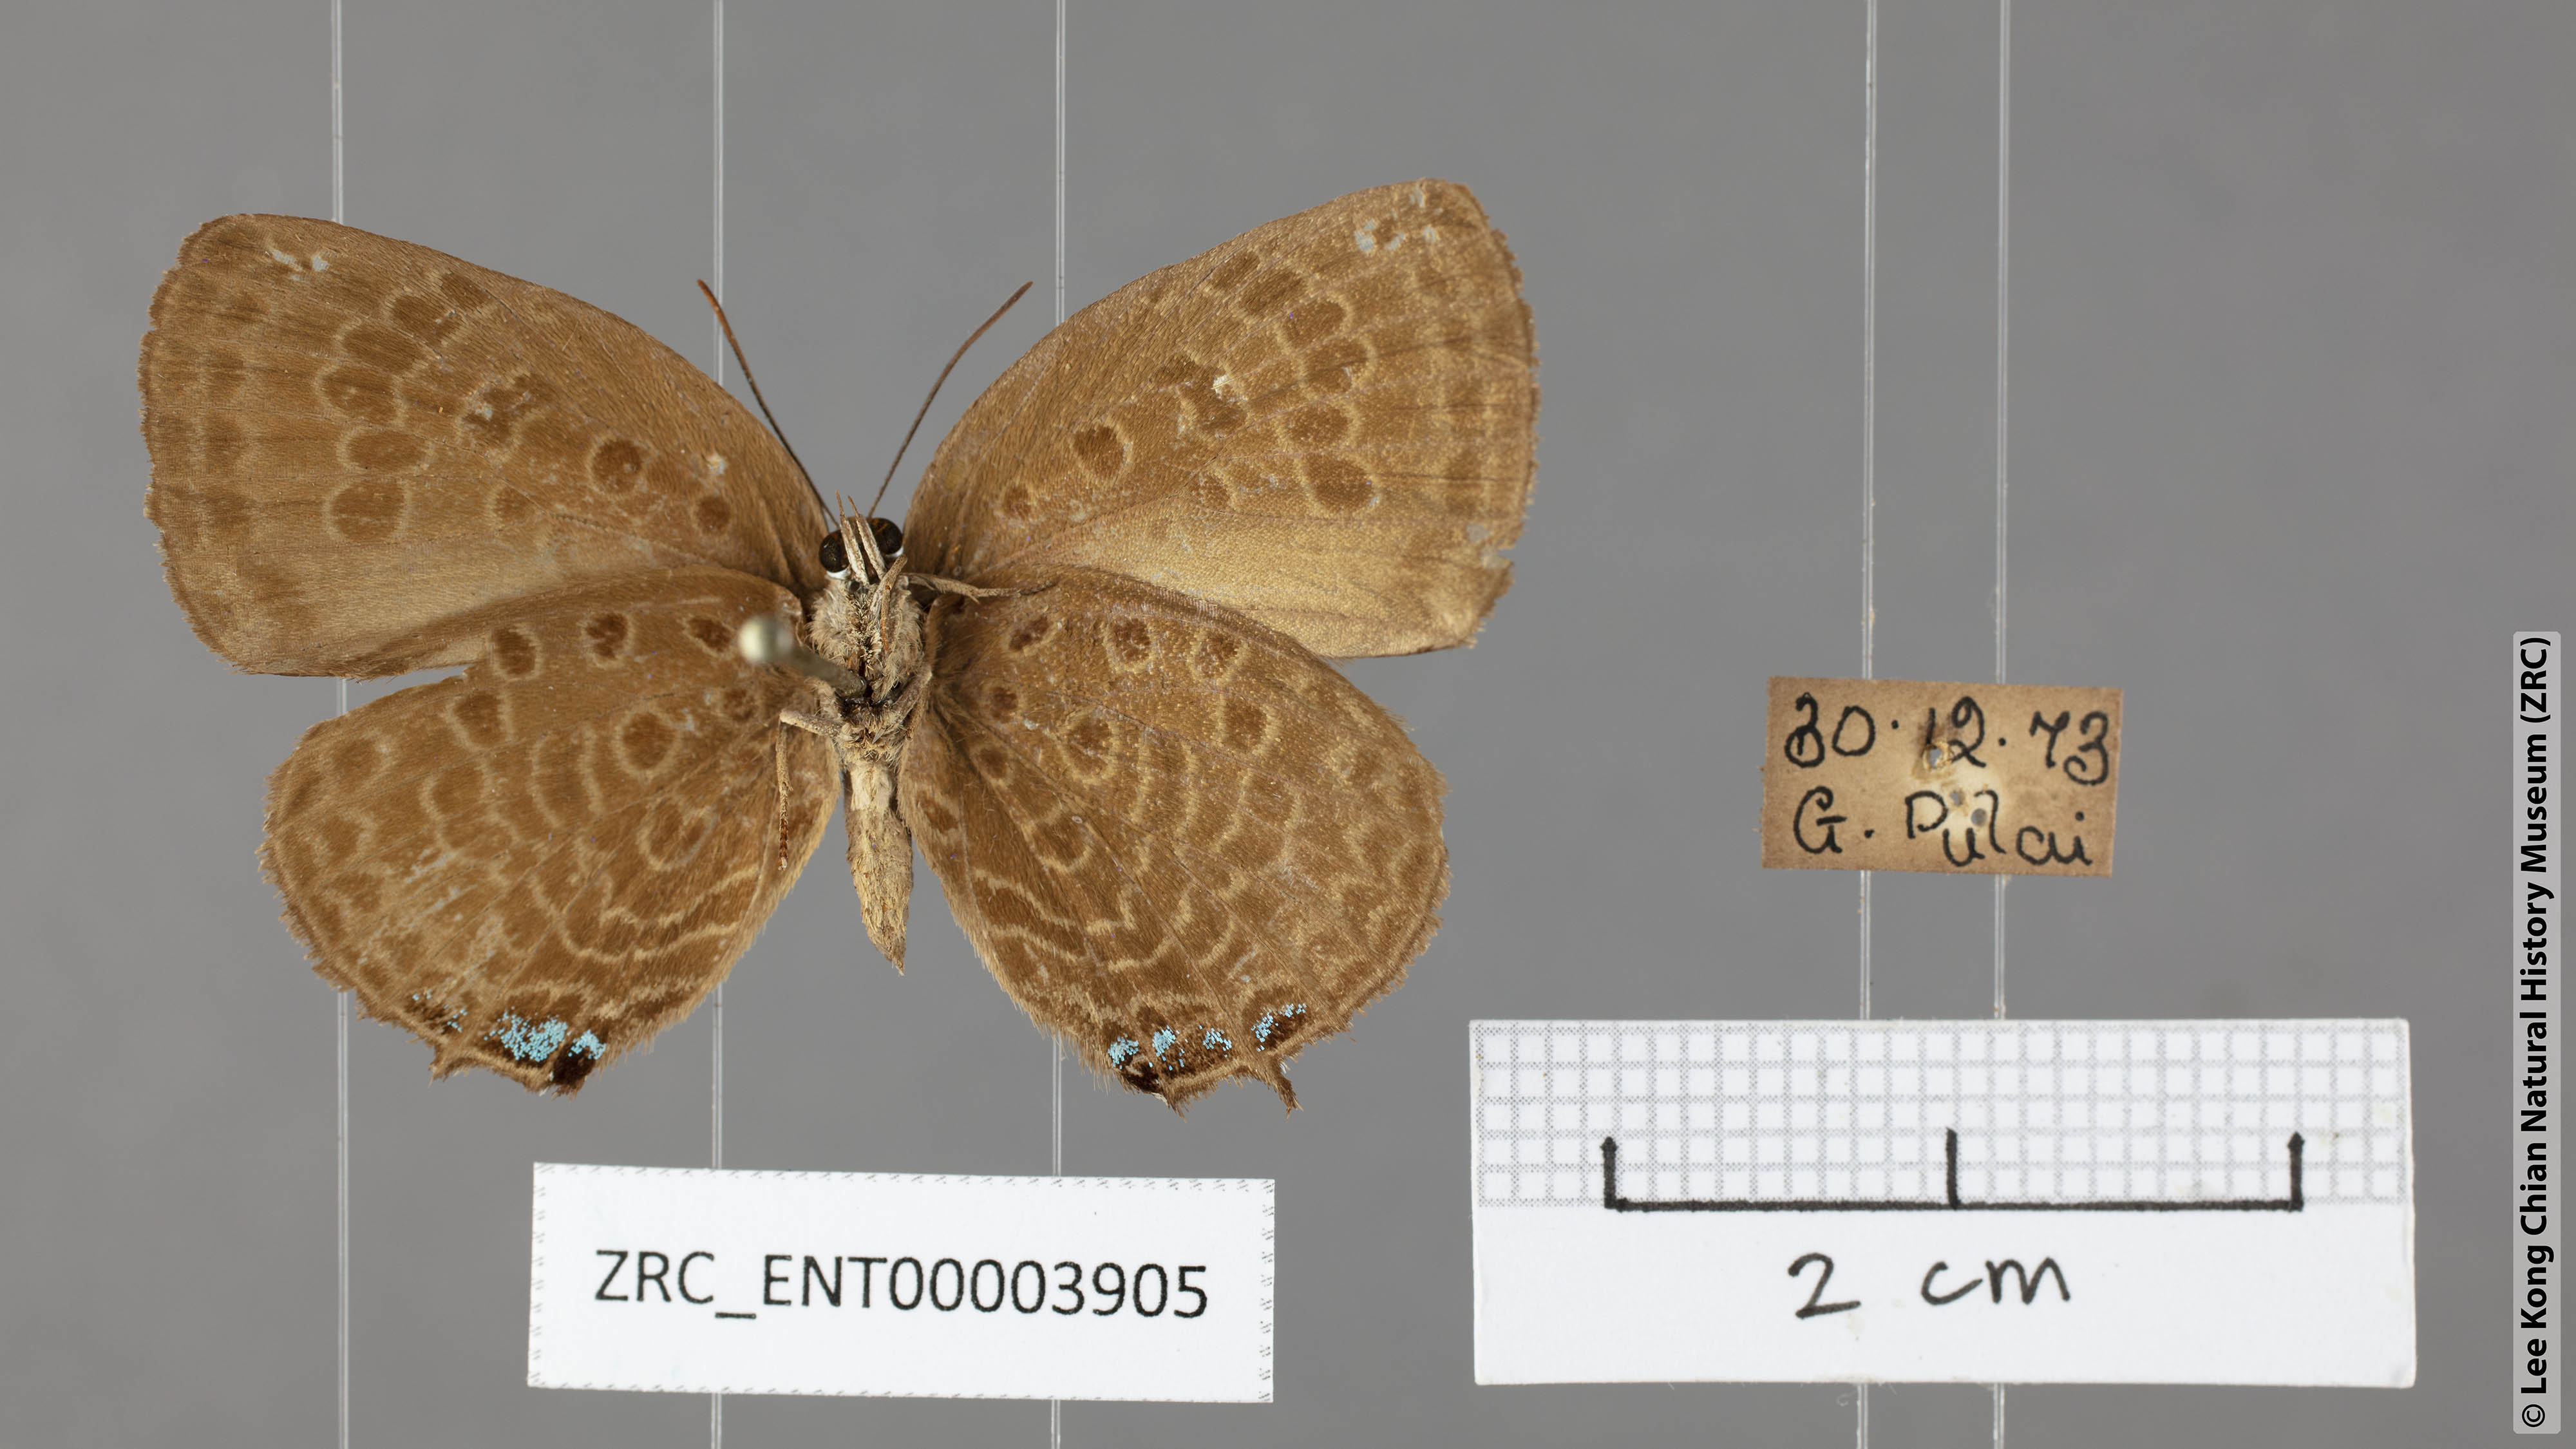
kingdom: Animalia
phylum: Arthropoda
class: Insecta
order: Lepidoptera
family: Lycaenidae
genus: Arhopala
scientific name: Arhopala delta
